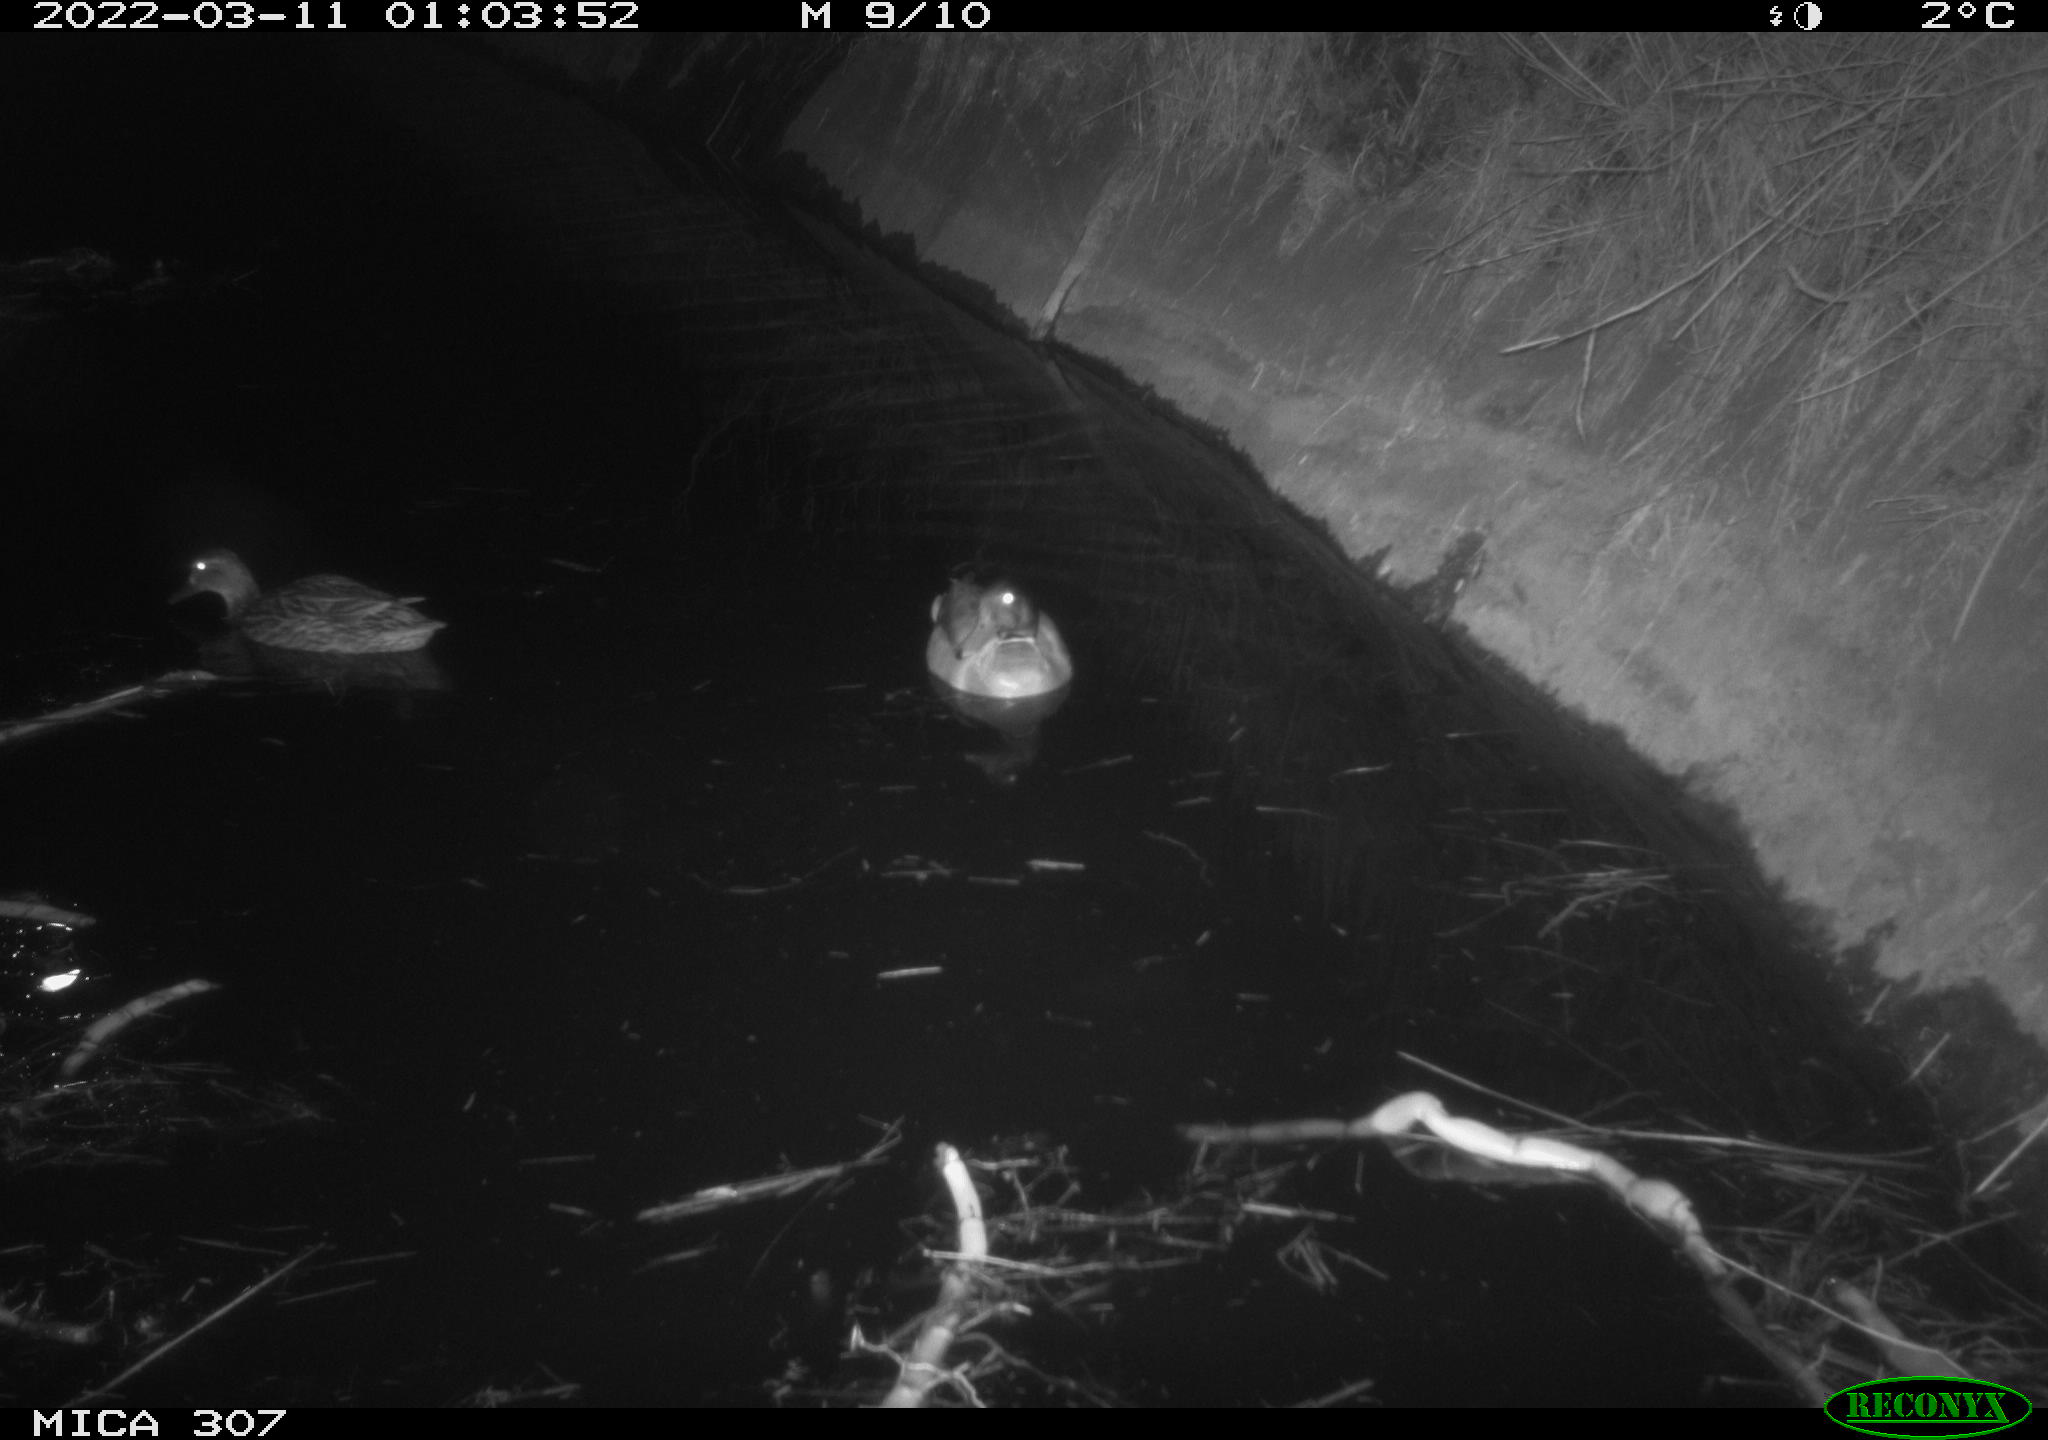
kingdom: Animalia
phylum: Chordata
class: Aves
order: Anseriformes
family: Anatidae
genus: Anas
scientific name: Anas platyrhynchos
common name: Mallard
